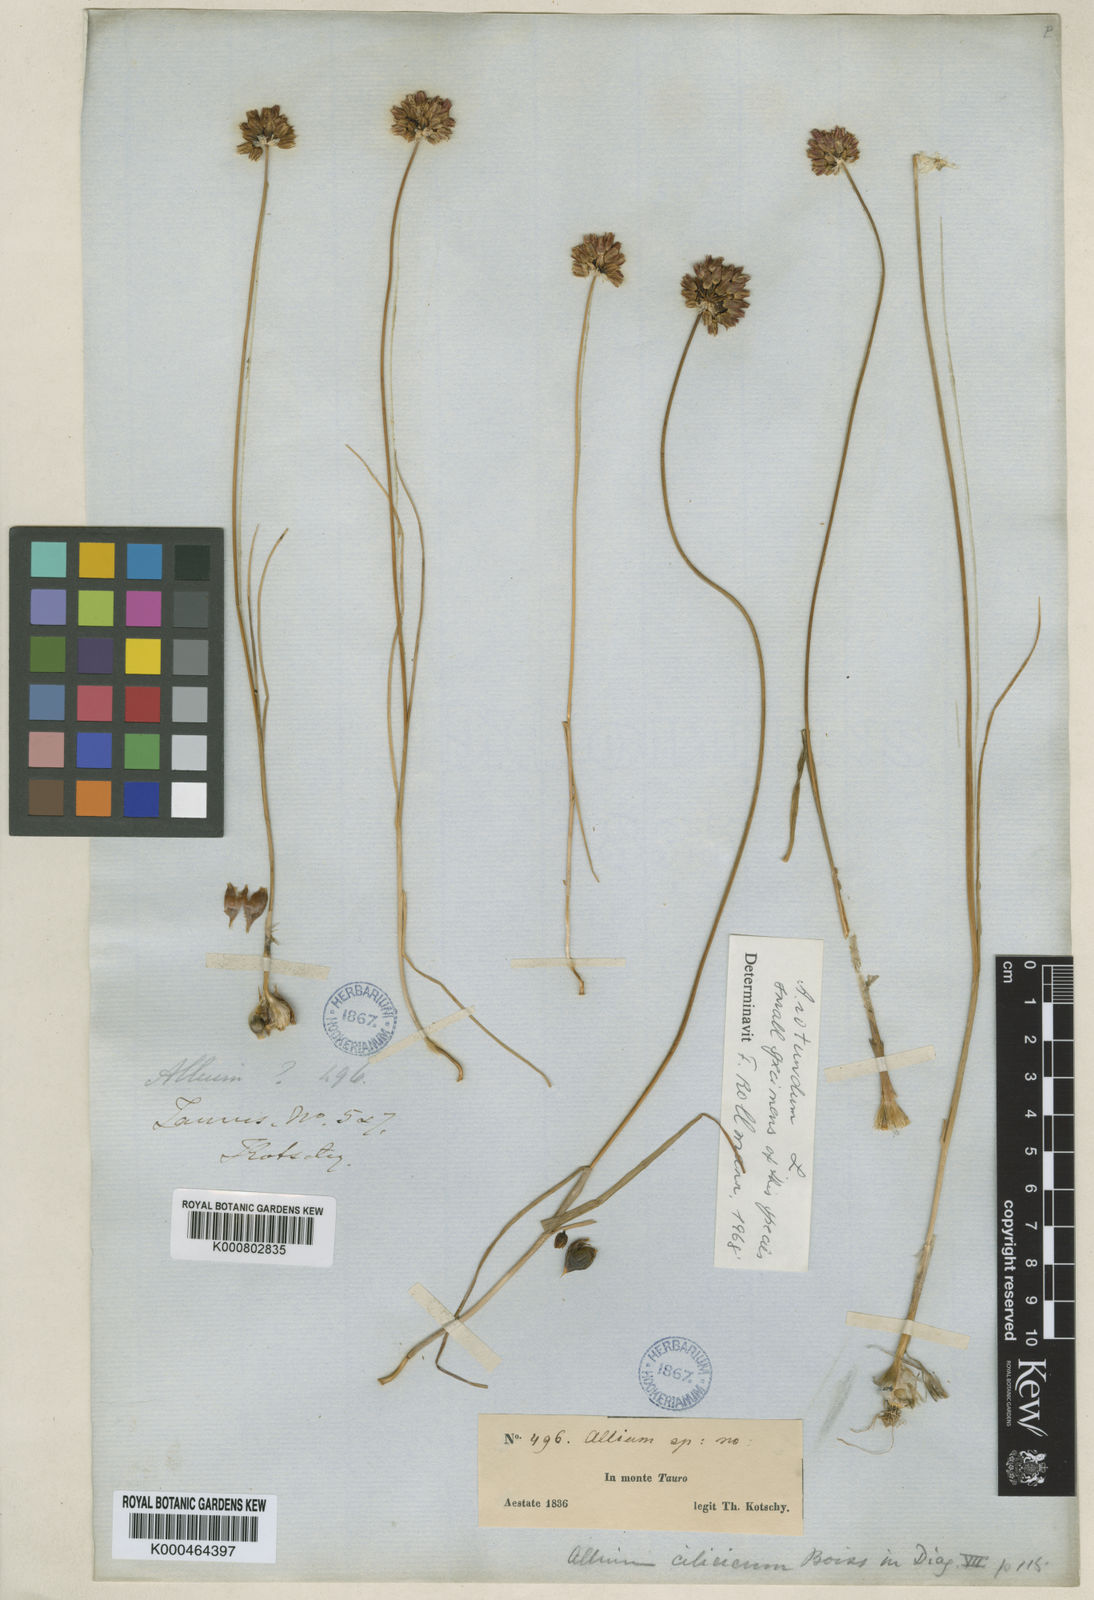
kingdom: Plantae
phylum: Tracheophyta
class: Liliopsida
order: Asparagales
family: Amaryllidaceae
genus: Allium
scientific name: Allium rotundum
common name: Sand leek
